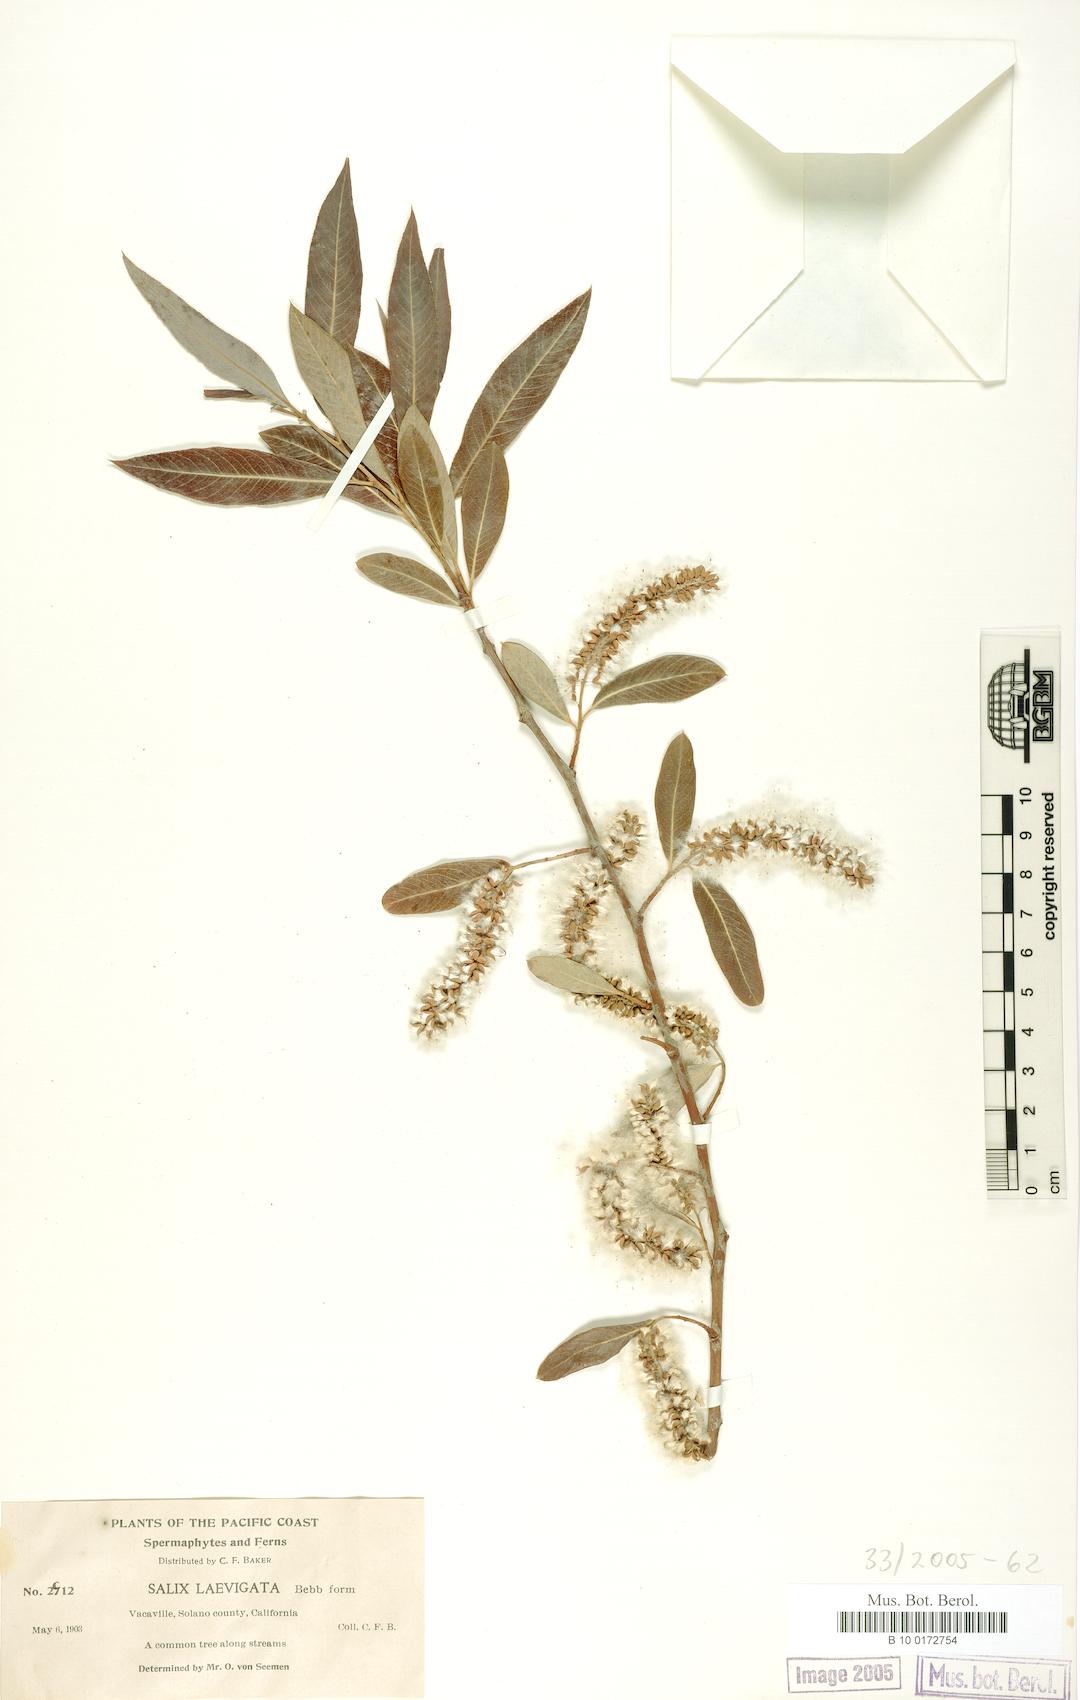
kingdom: Plantae
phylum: Tracheophyta
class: Magnoliopsida
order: Malpighiales
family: Salicaceae
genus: Salix
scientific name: Salix laevigata
